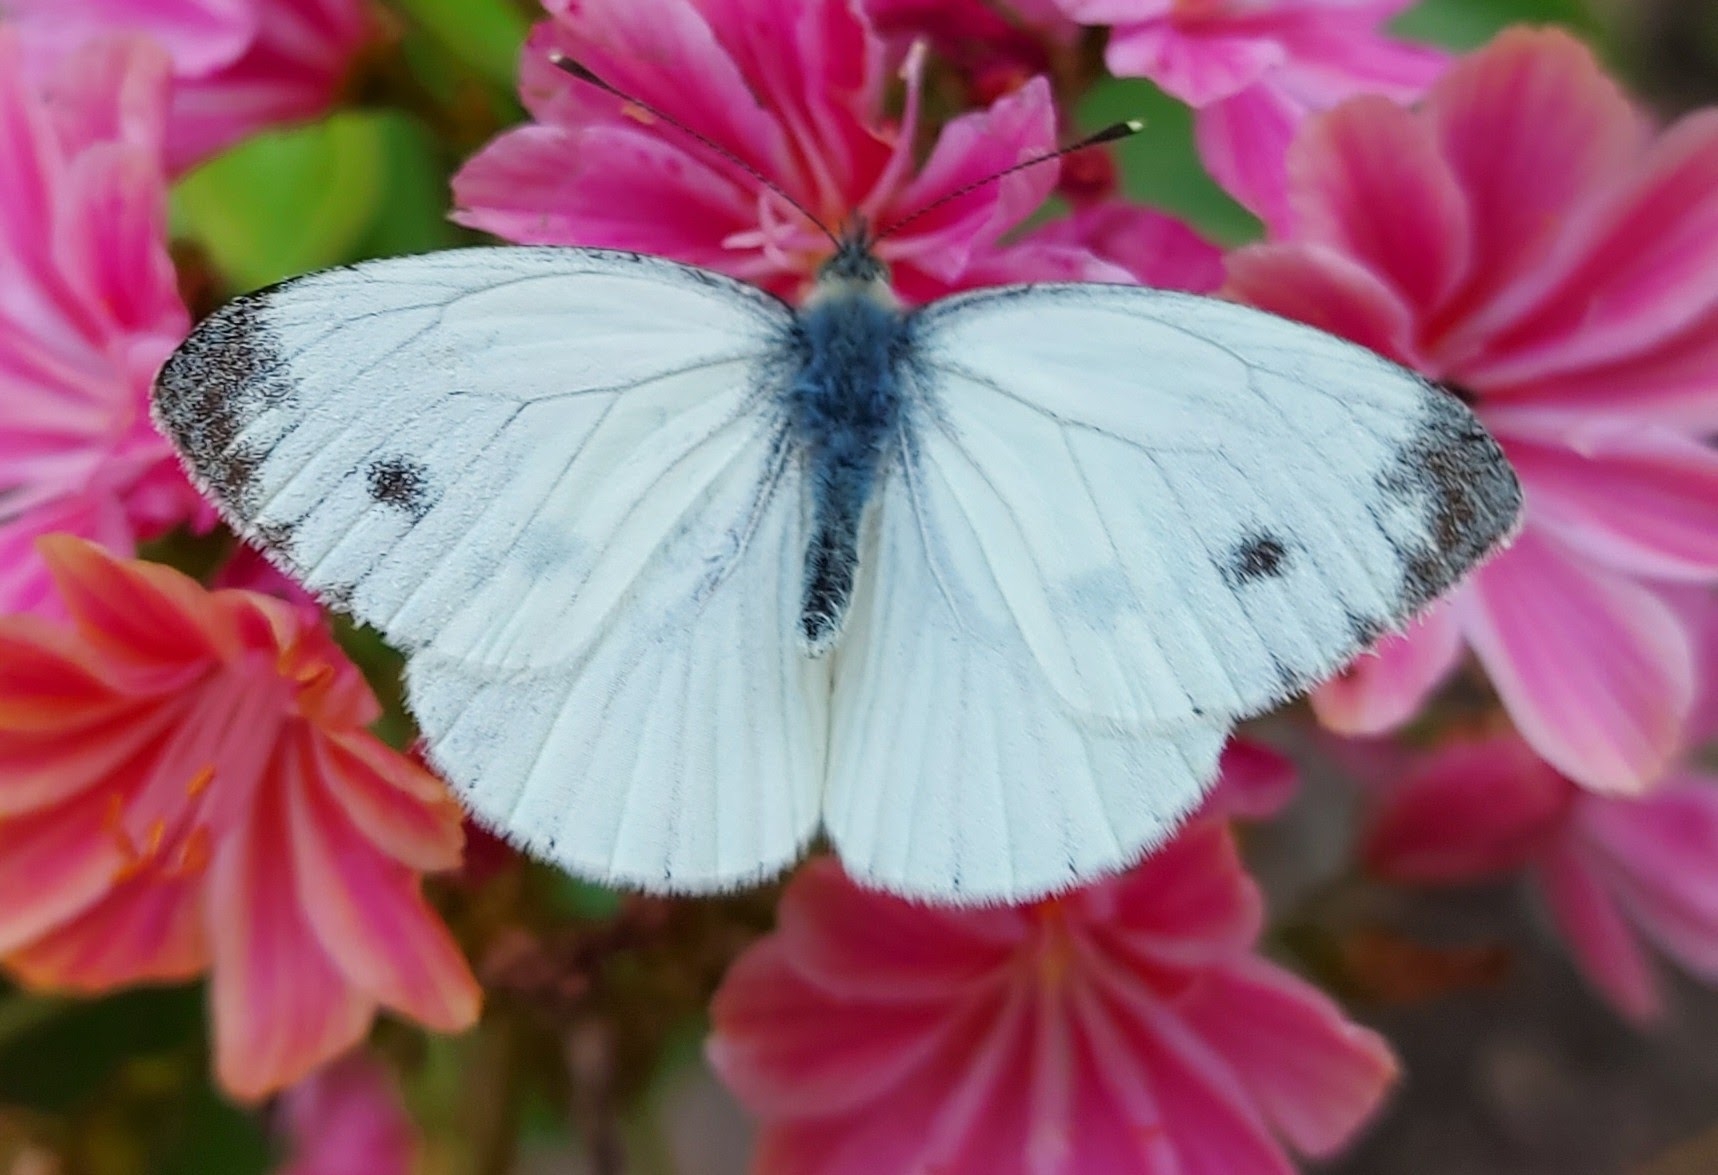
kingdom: Animalia
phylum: Arthropoda
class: Insecta
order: Lepidoptera
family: Pieridae
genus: Pieris
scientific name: Pieris napi
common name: Grønåret kålsommerfugl
